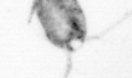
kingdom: Animalia
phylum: Arthropoda
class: Copepoda
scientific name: Copepoda
